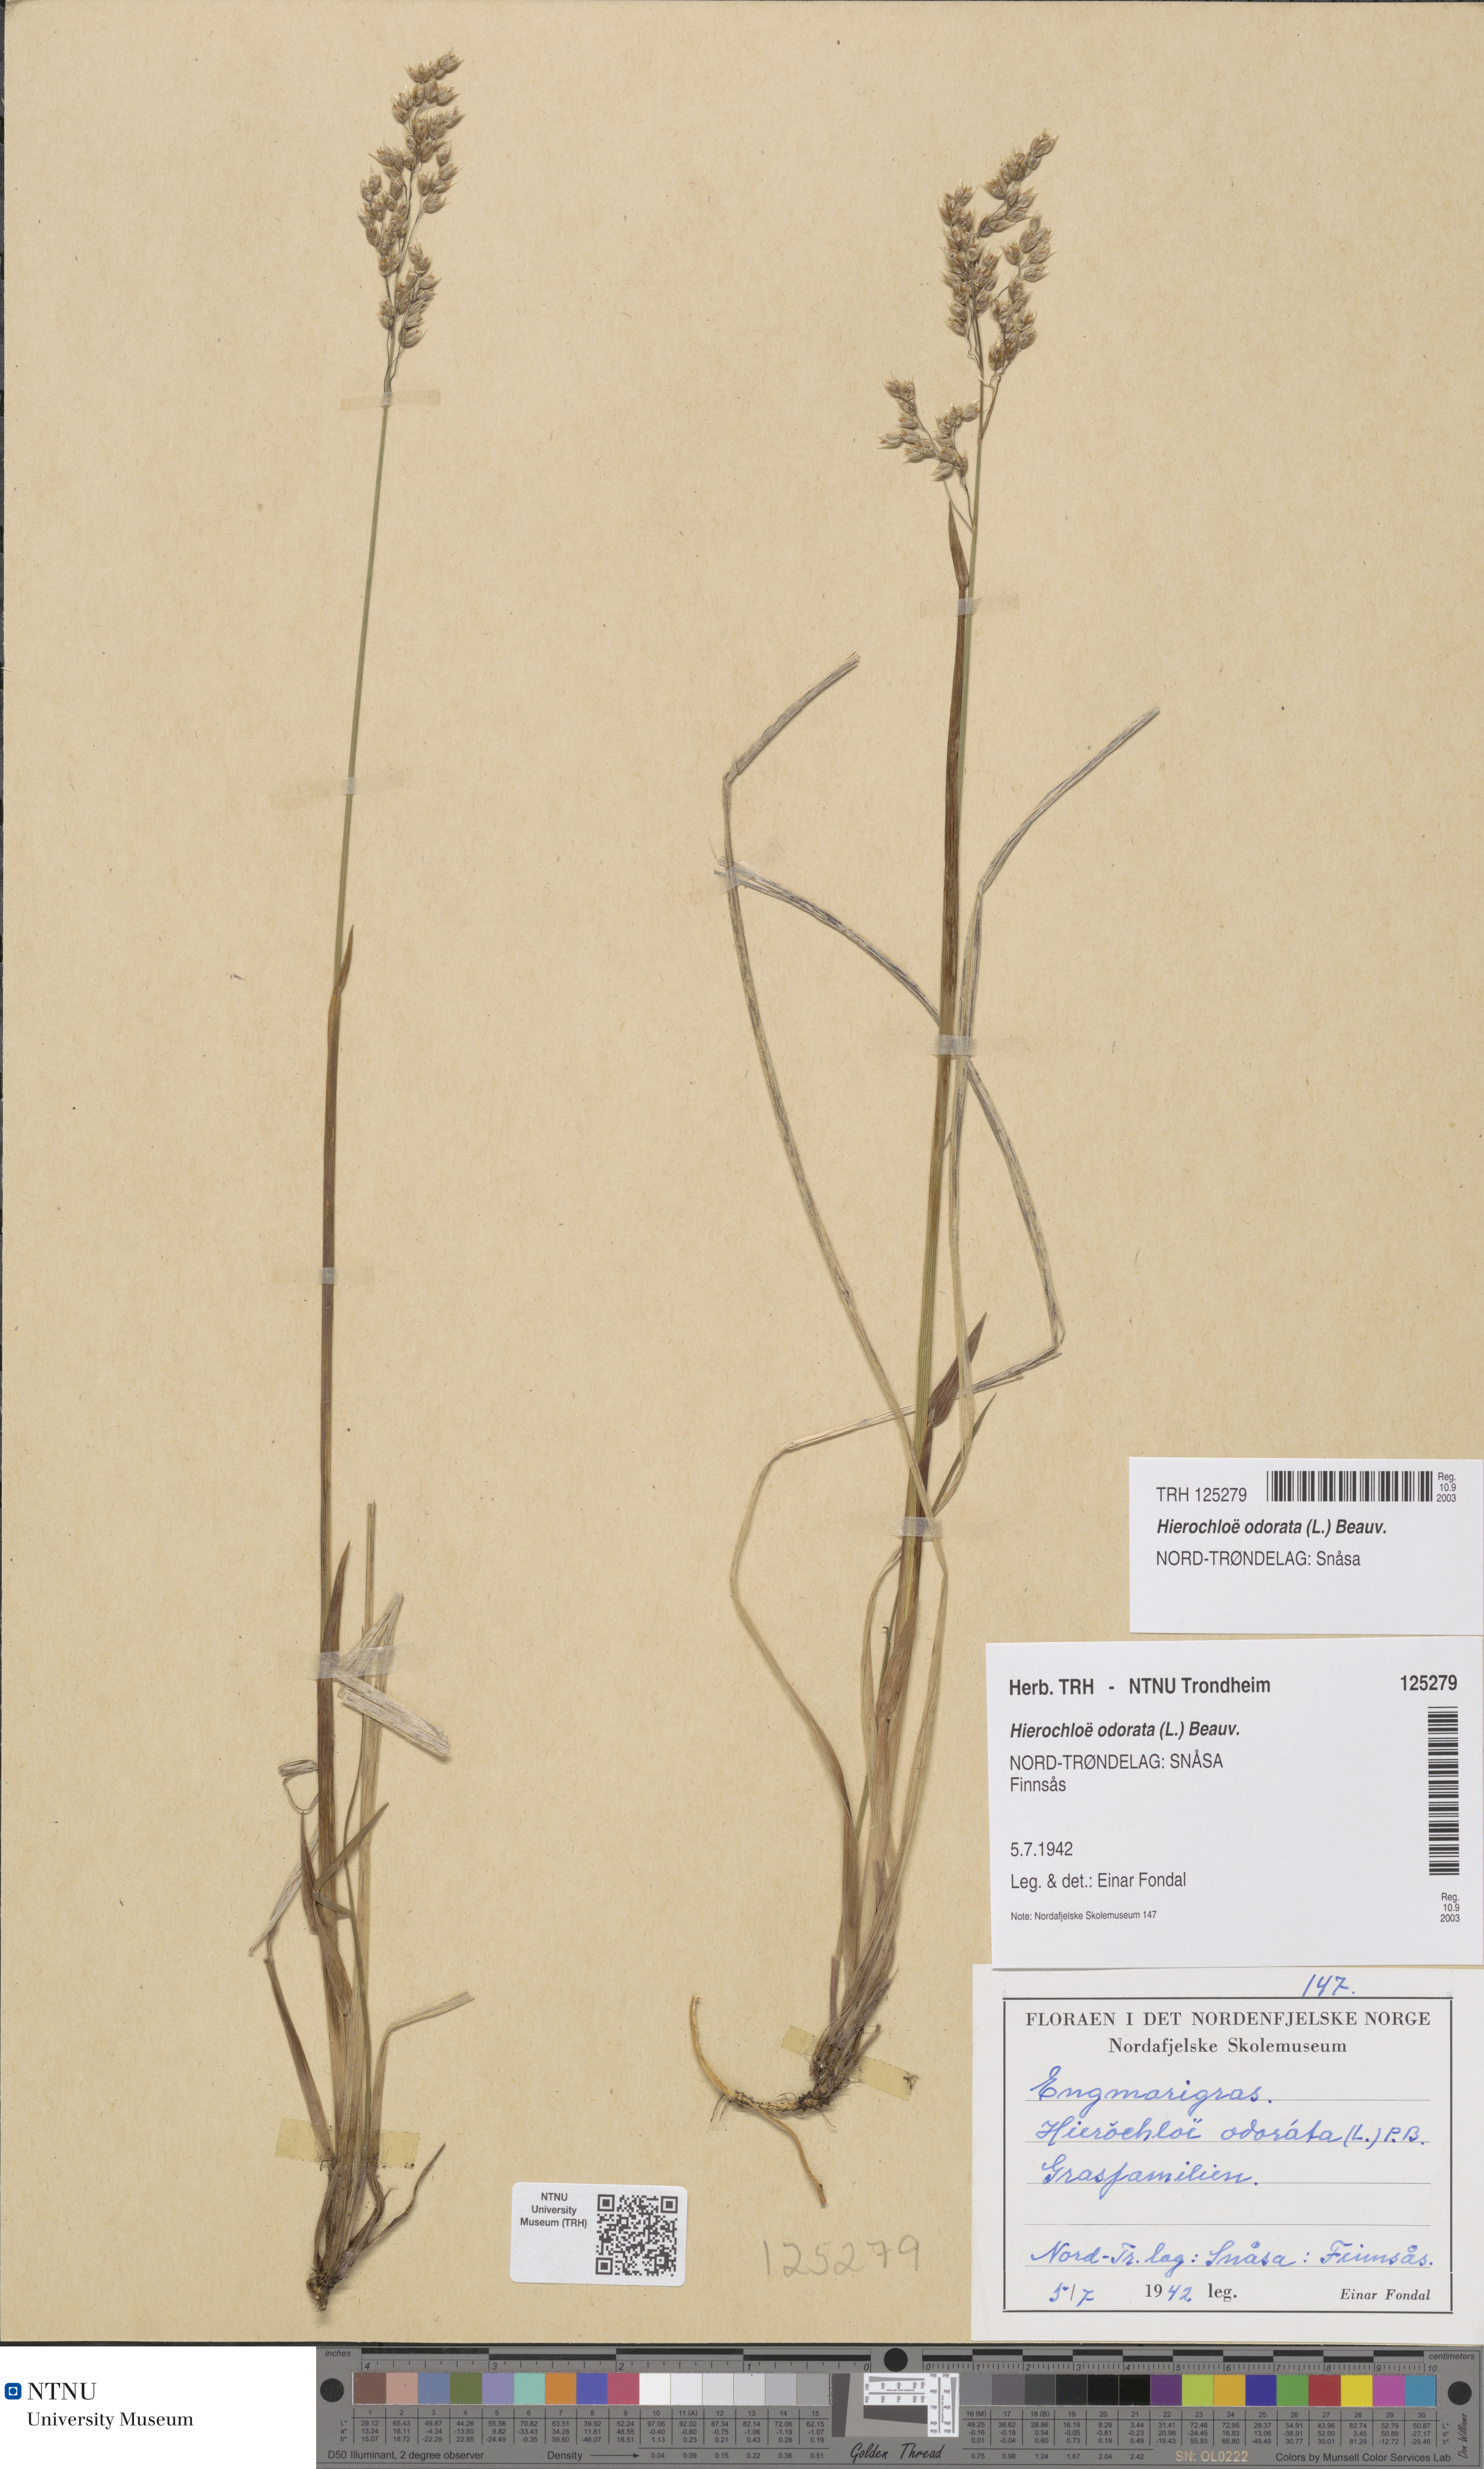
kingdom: Plantae
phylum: Tracheophyta
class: Liliopsida
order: Poales
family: Poaceae
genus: Anthoxanthum
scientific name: Anthoxanthum nitens
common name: Holy grass
